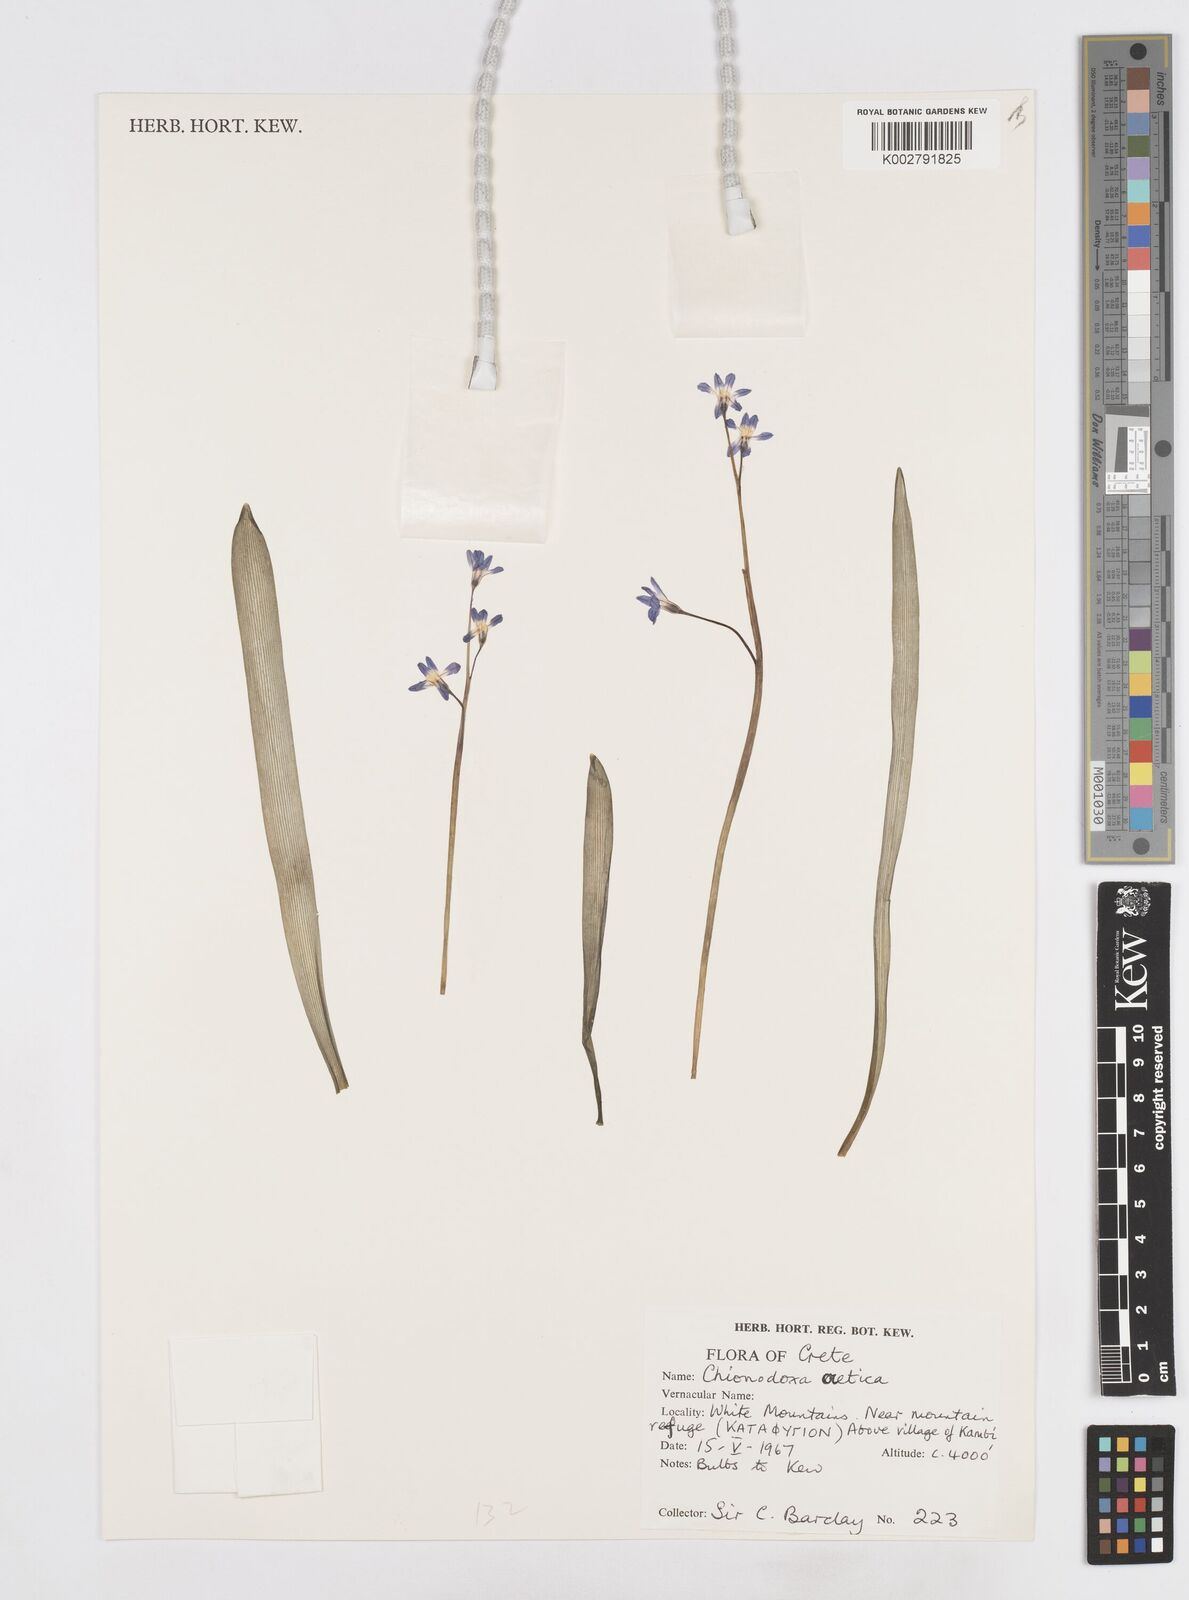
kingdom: Plantae
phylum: Tracheophyta
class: Liliopsida
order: Asparagales
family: Asparagaceae
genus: Scilla
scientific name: Scilla cretica
